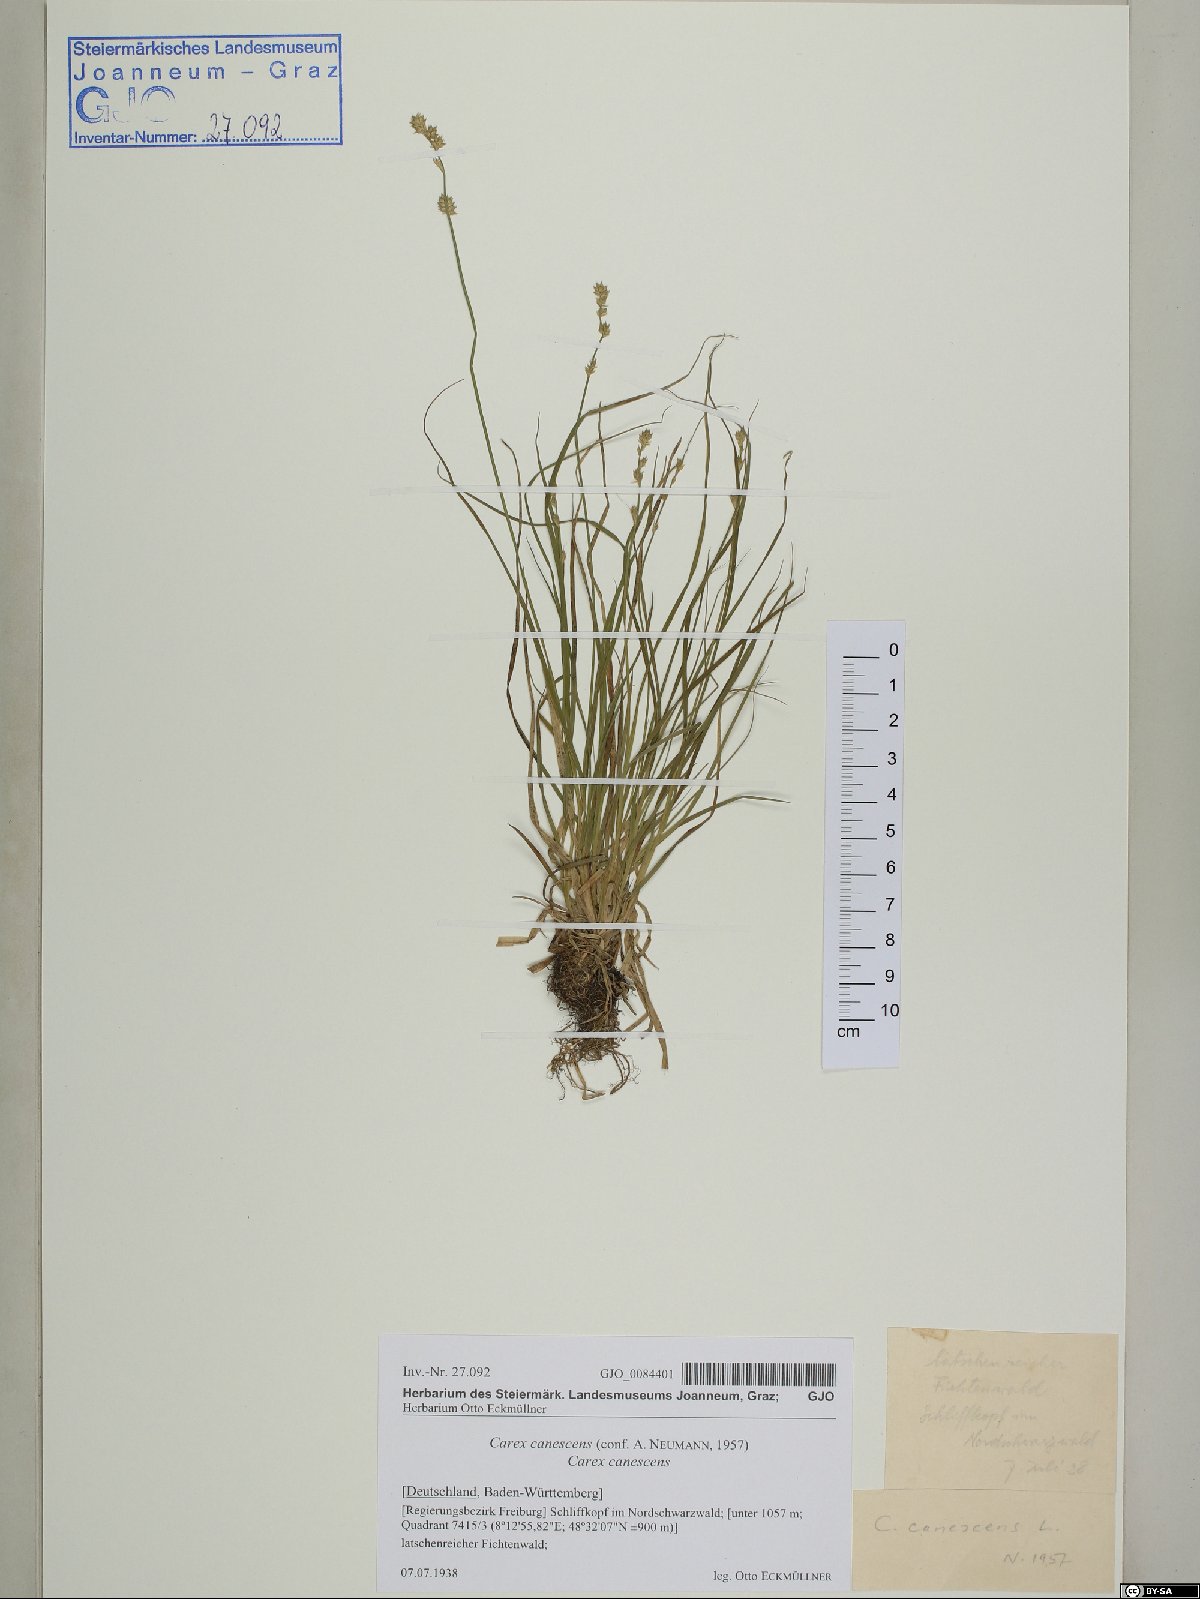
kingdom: Plantae
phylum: Tracheophyta
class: Liliopsida
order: Poales
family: Cyperaceae
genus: Carex
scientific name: Carex canescens
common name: White sedge
